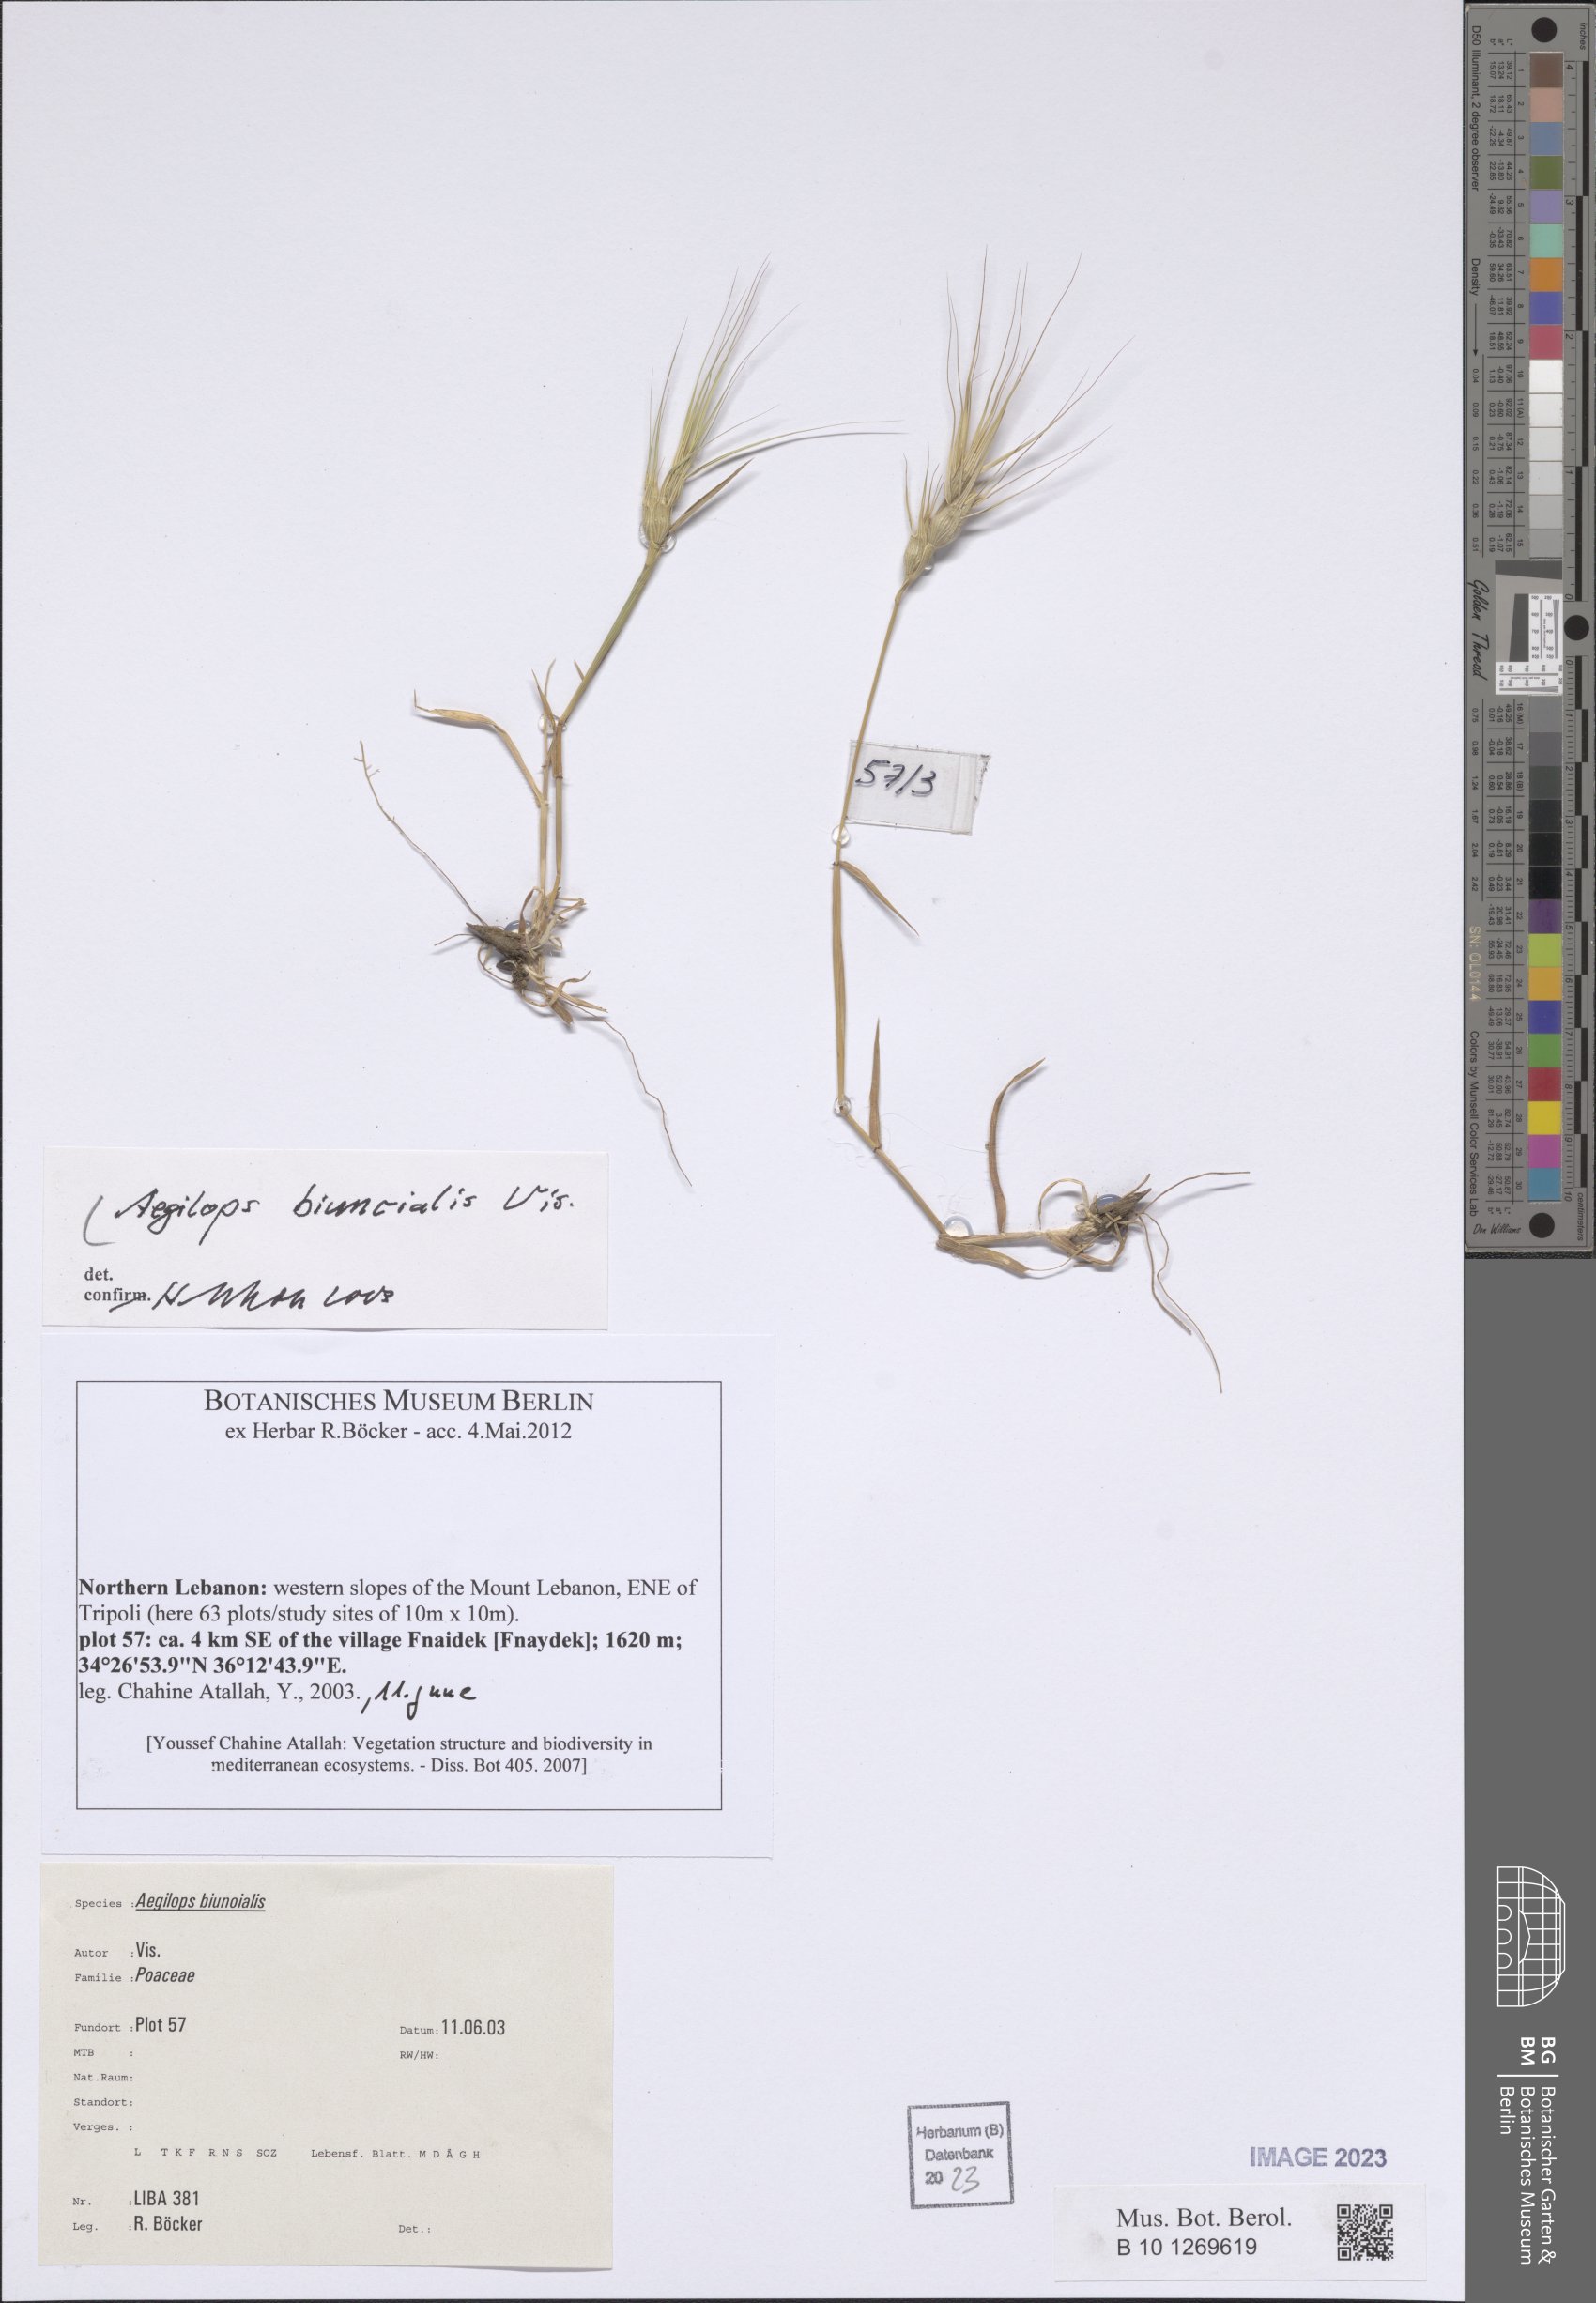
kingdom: Plantae
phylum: Tracheophyta
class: Liliopsida
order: Poales
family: Poaceae
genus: Aegilops
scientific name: Aegilops biuncialis
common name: Mediterranean aegilops
